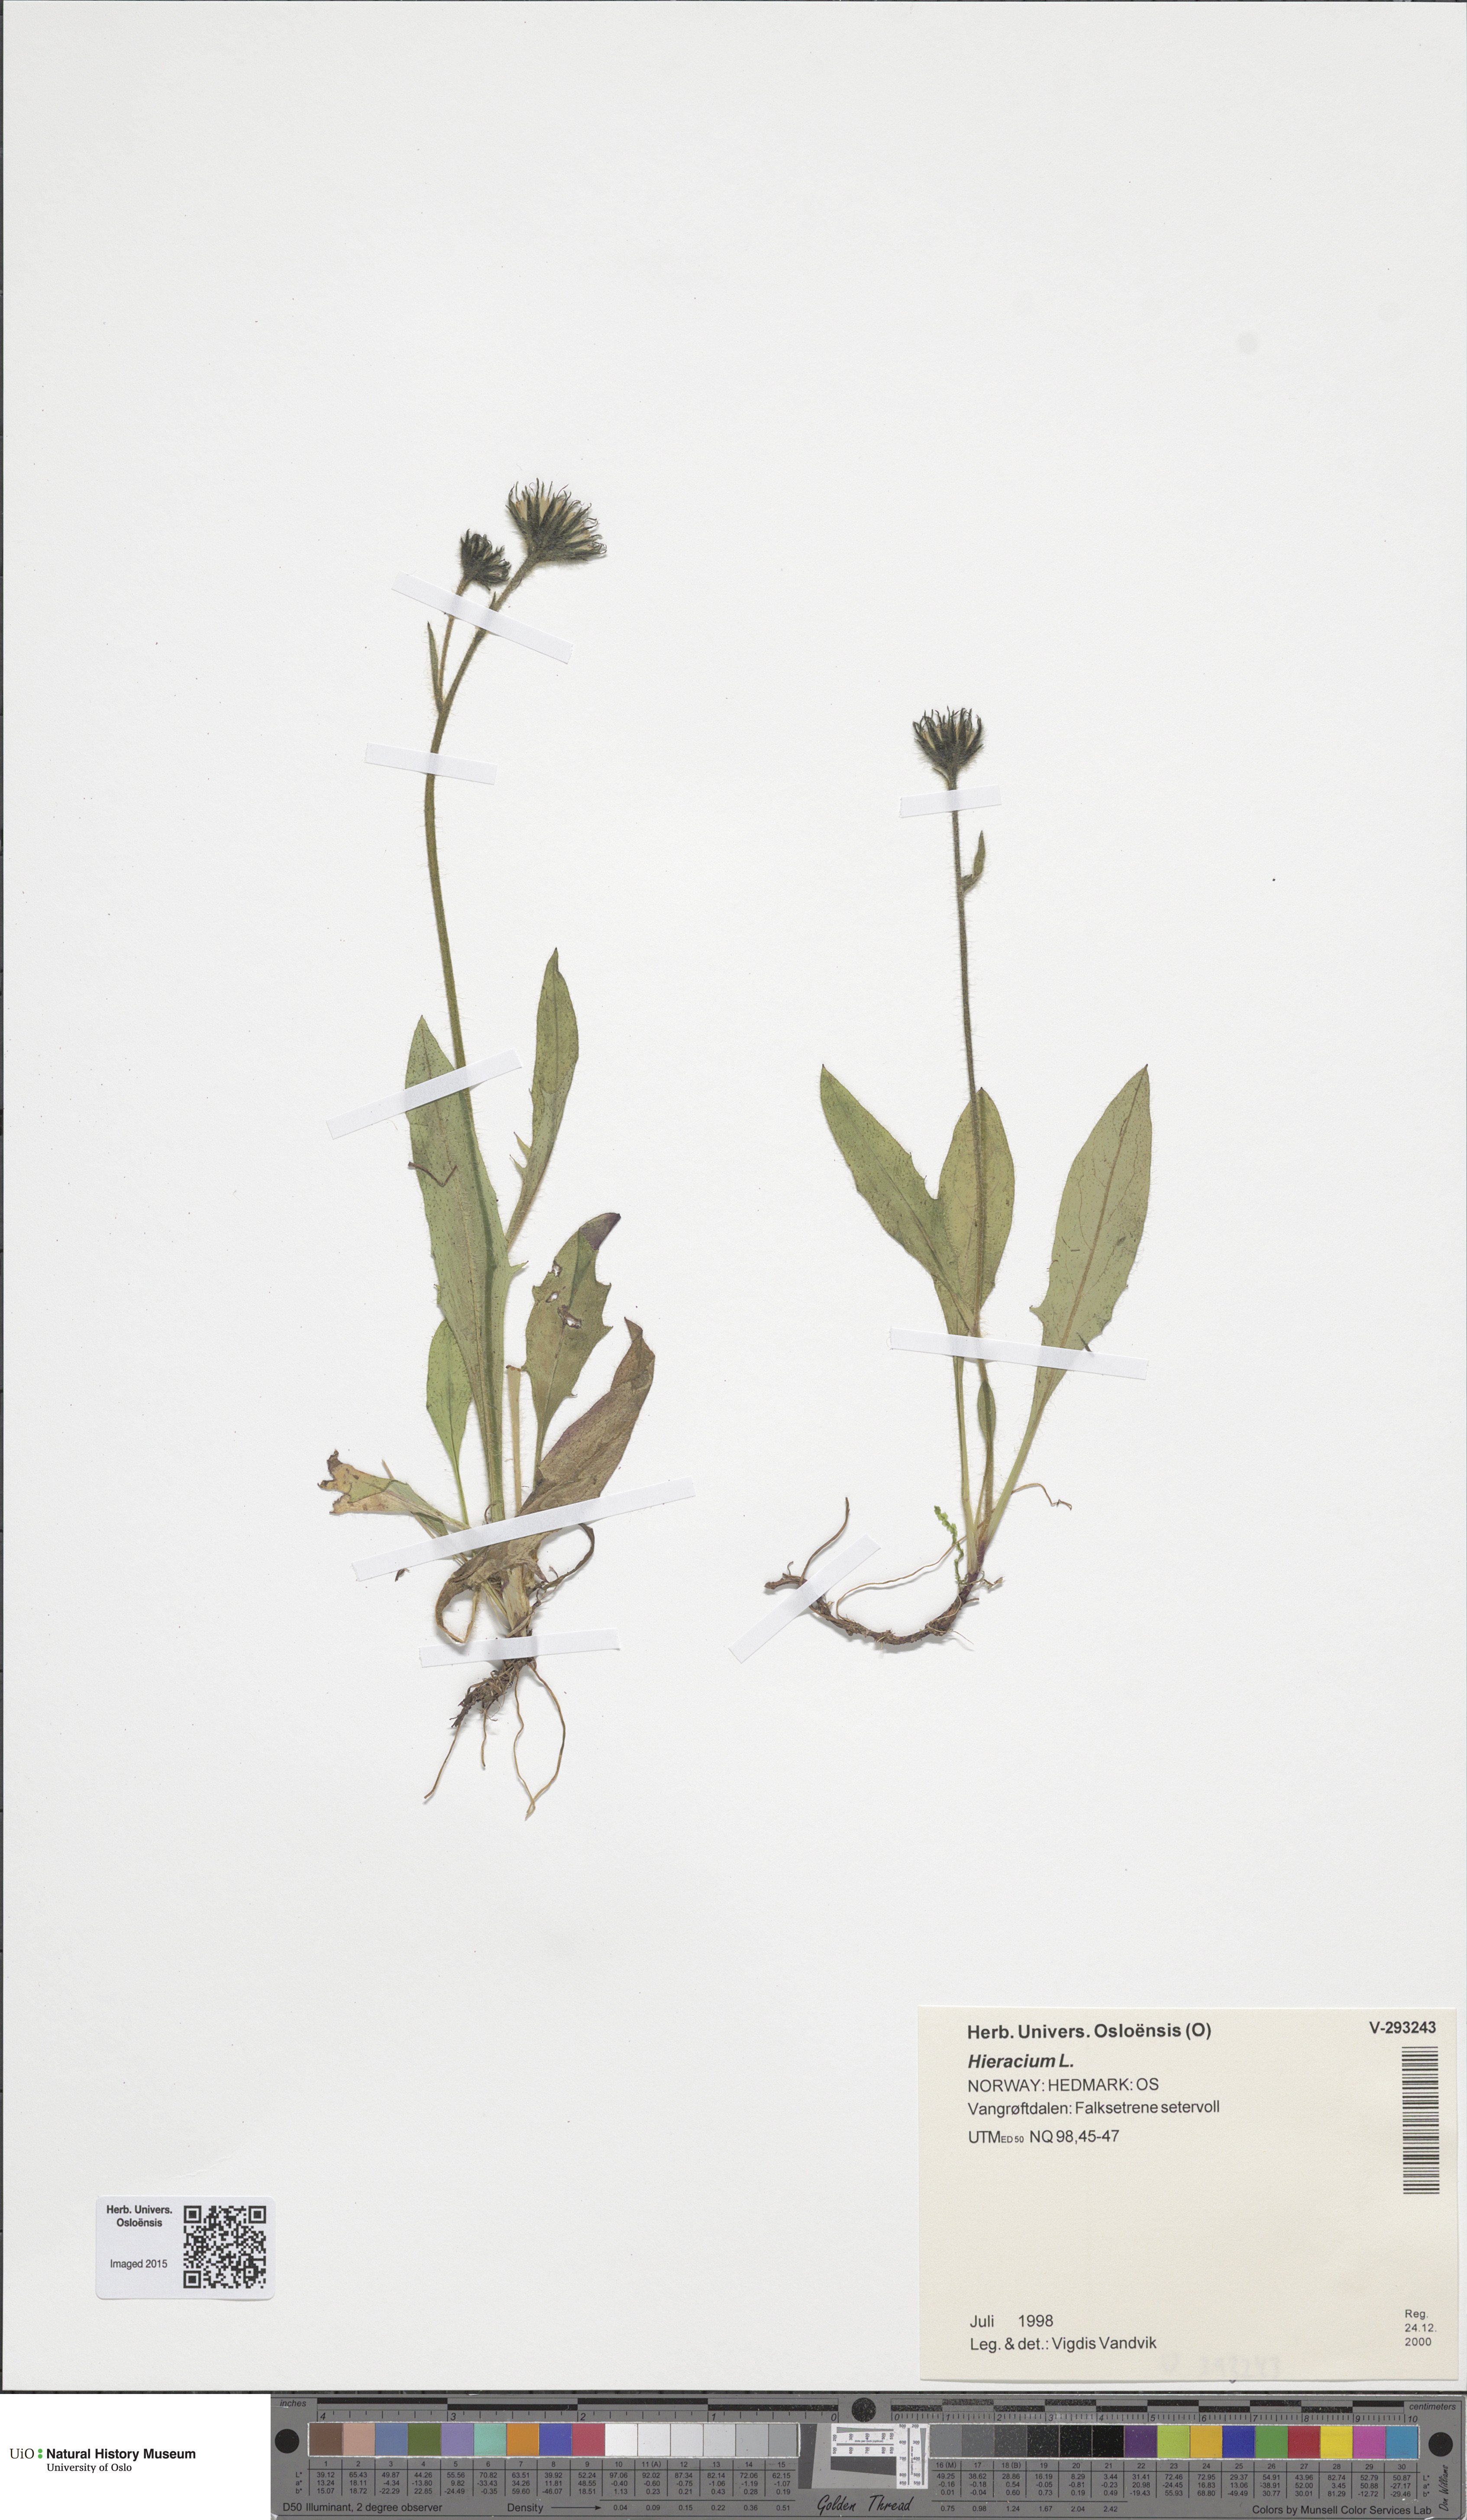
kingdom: Plantae
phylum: Tracheophyta
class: Magnoliopsida
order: Asterales
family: Asteraceae
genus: Hieracium
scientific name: Hieracium
